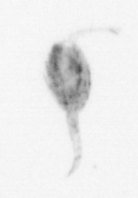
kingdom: Animalia
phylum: Arthropoda
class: Copepoda
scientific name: Copepoda
